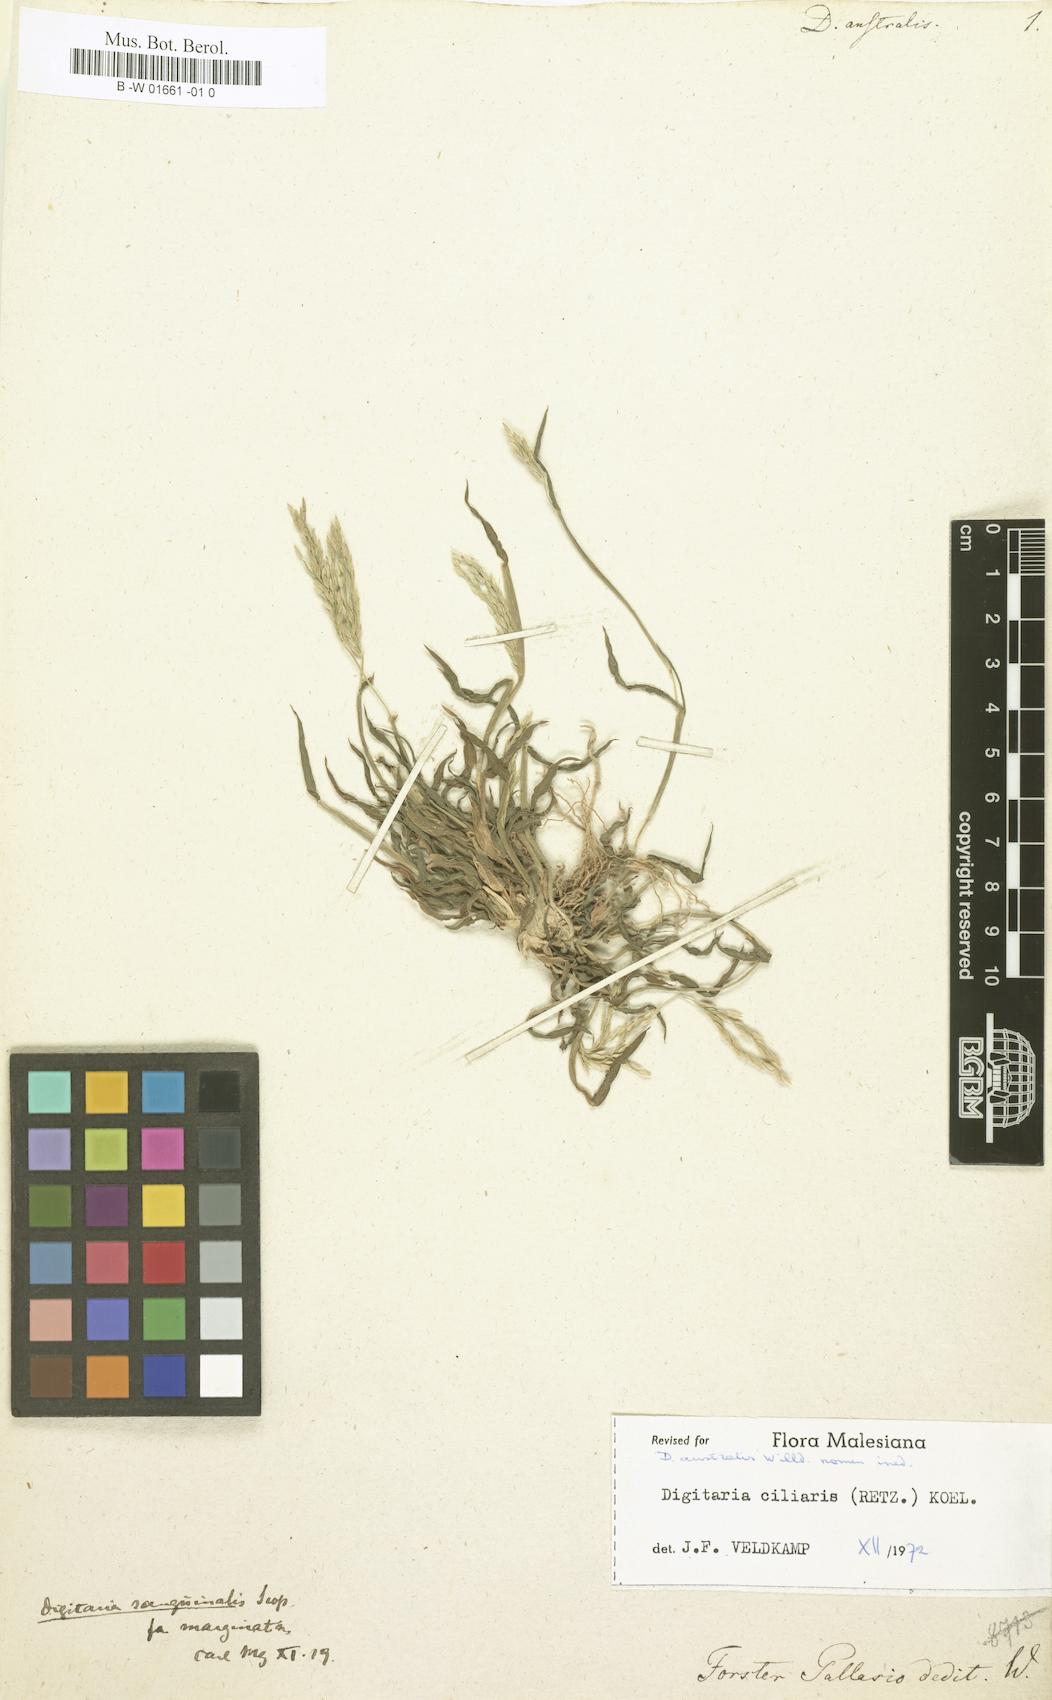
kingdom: Plantae
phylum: Tracheophyta
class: Liliopsida
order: Poales
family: Poaceae
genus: Digitaria
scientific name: Digitaria sanguinalis
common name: Hairy crabgrass
